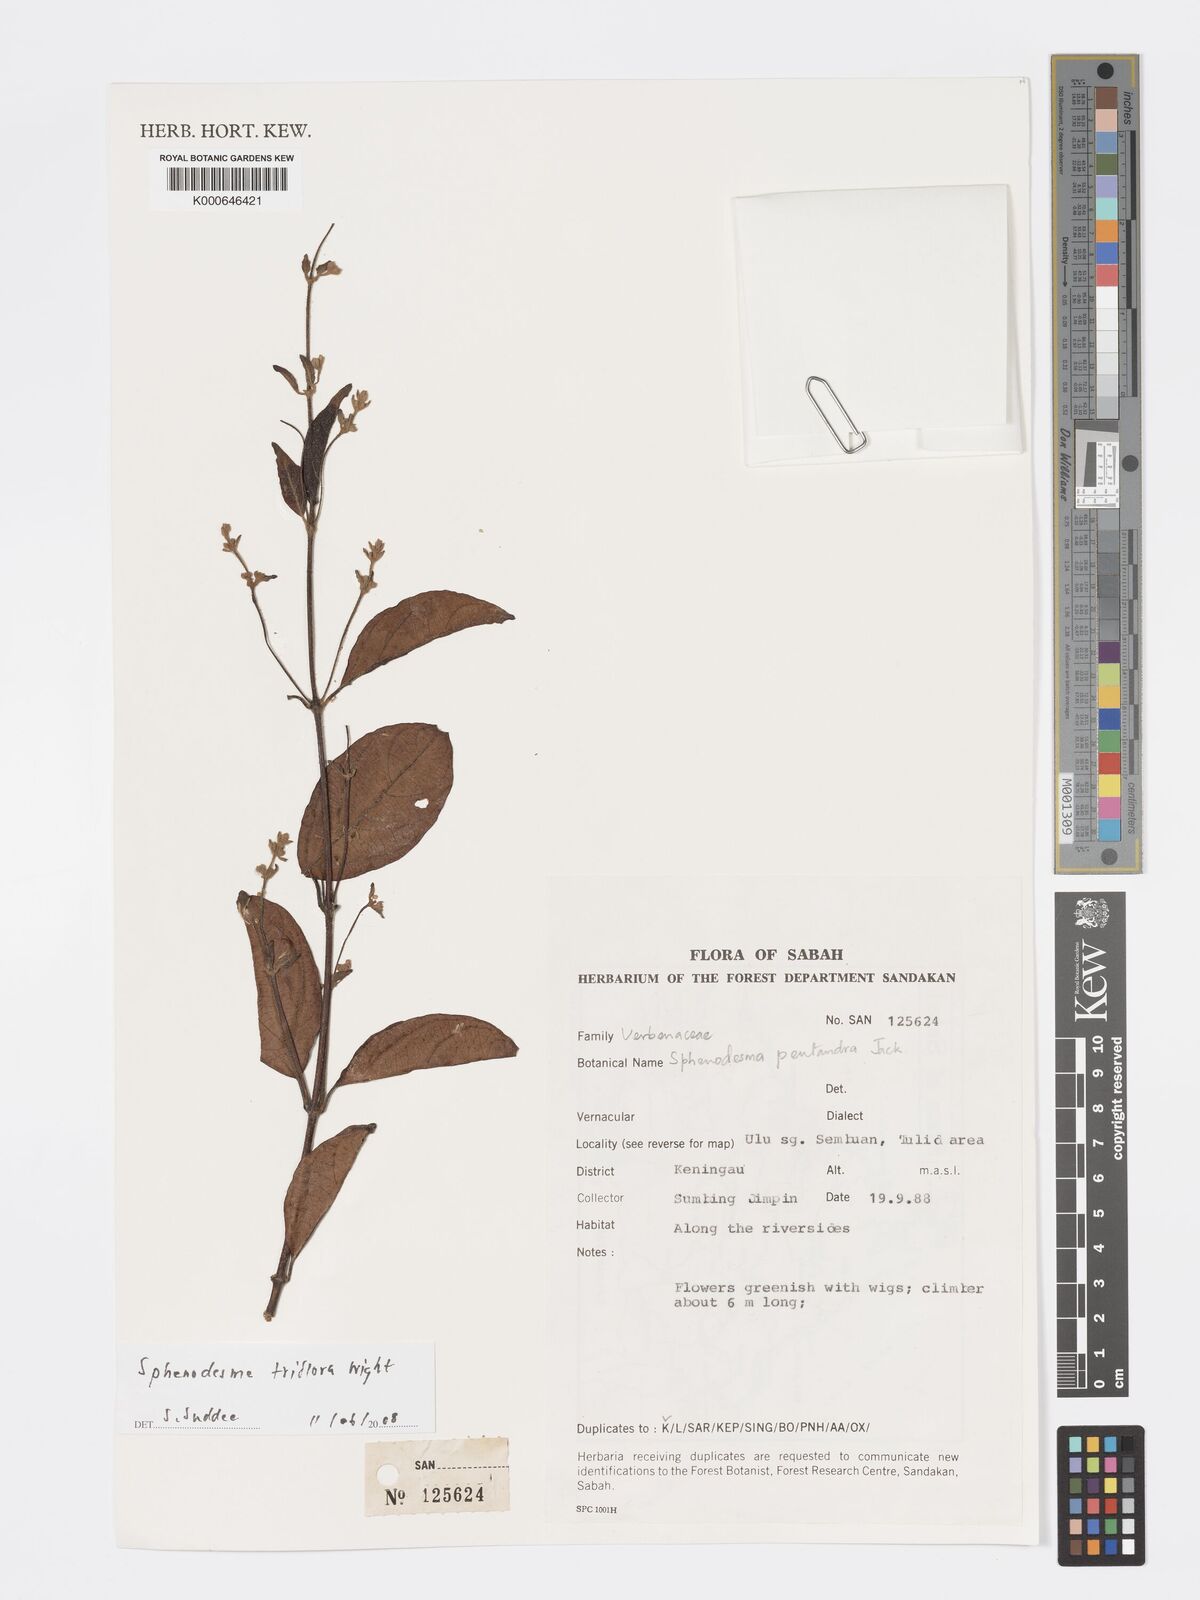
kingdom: Plantae
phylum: Tracheophyta
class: Magnoliopsida
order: Lamiales
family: Lamiaceae
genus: Sphenodesme
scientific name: Sphenodesme triflora
